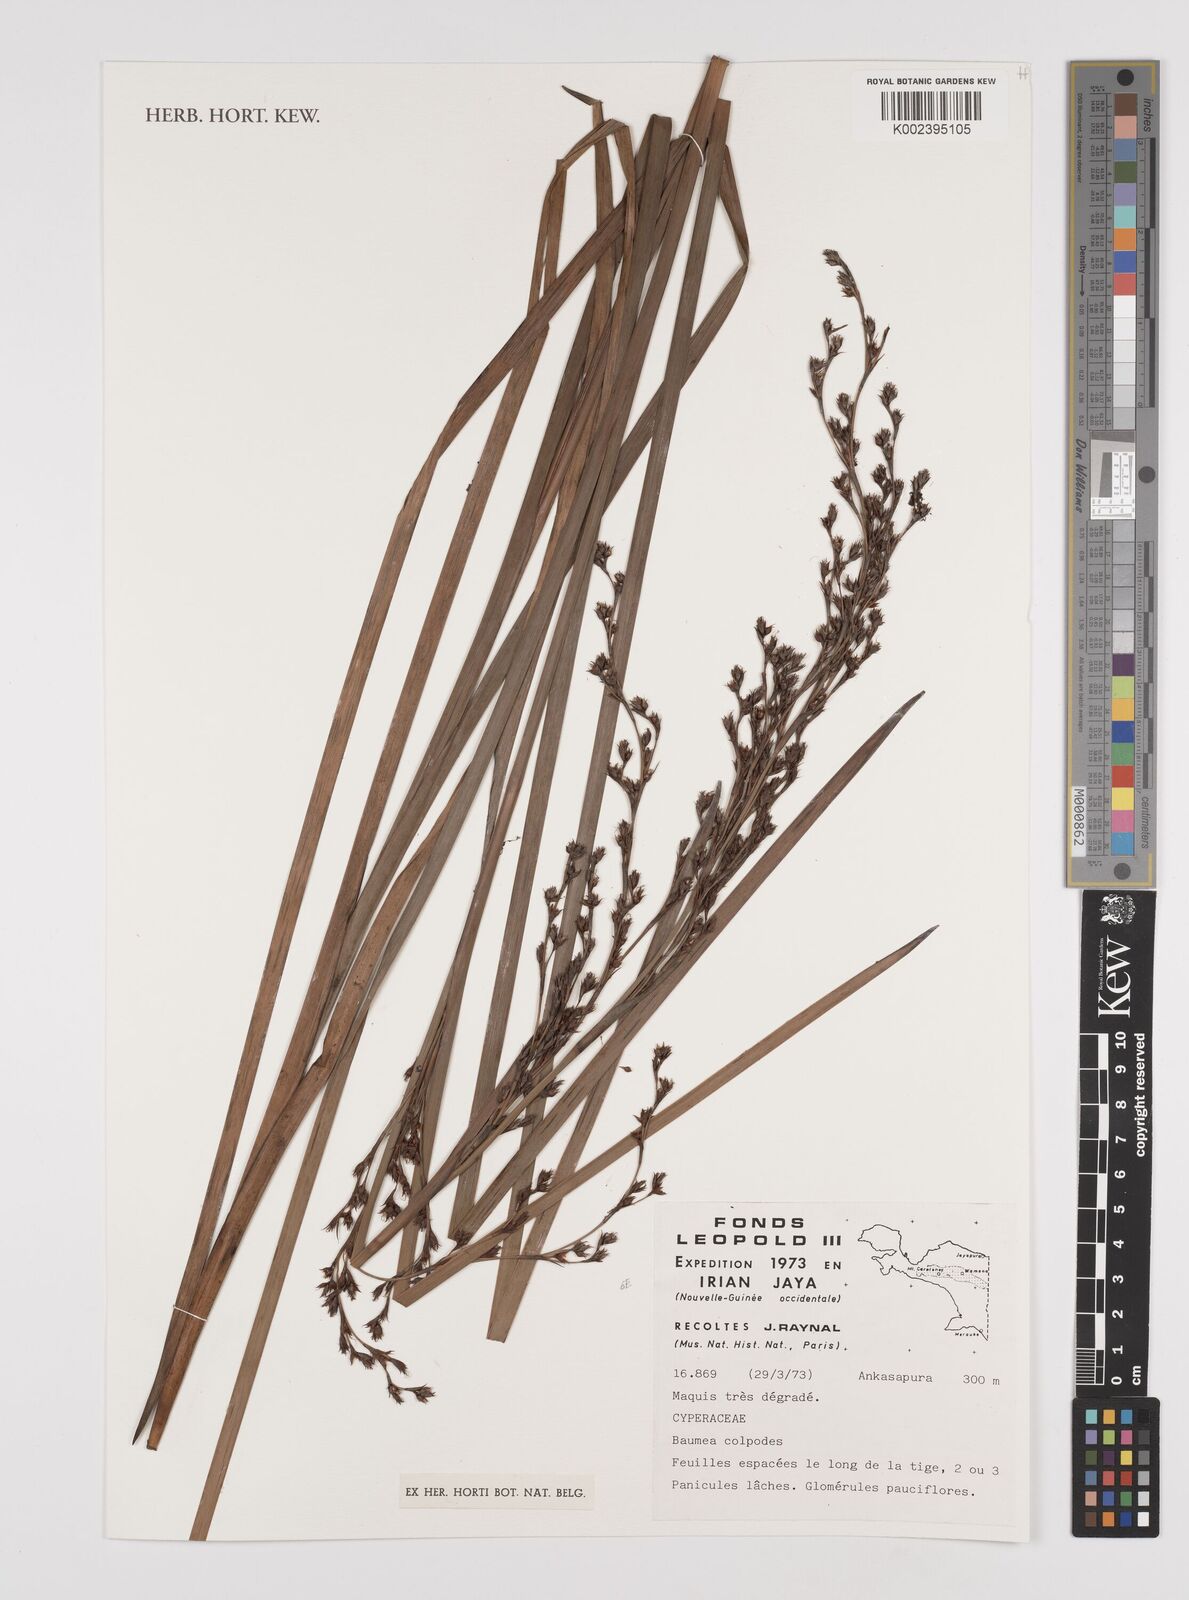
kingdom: Plantae
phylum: Tracheophyta
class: Liliopsida
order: Poales
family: Cyperaceae
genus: Machaerina
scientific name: Machaerina glomerata
